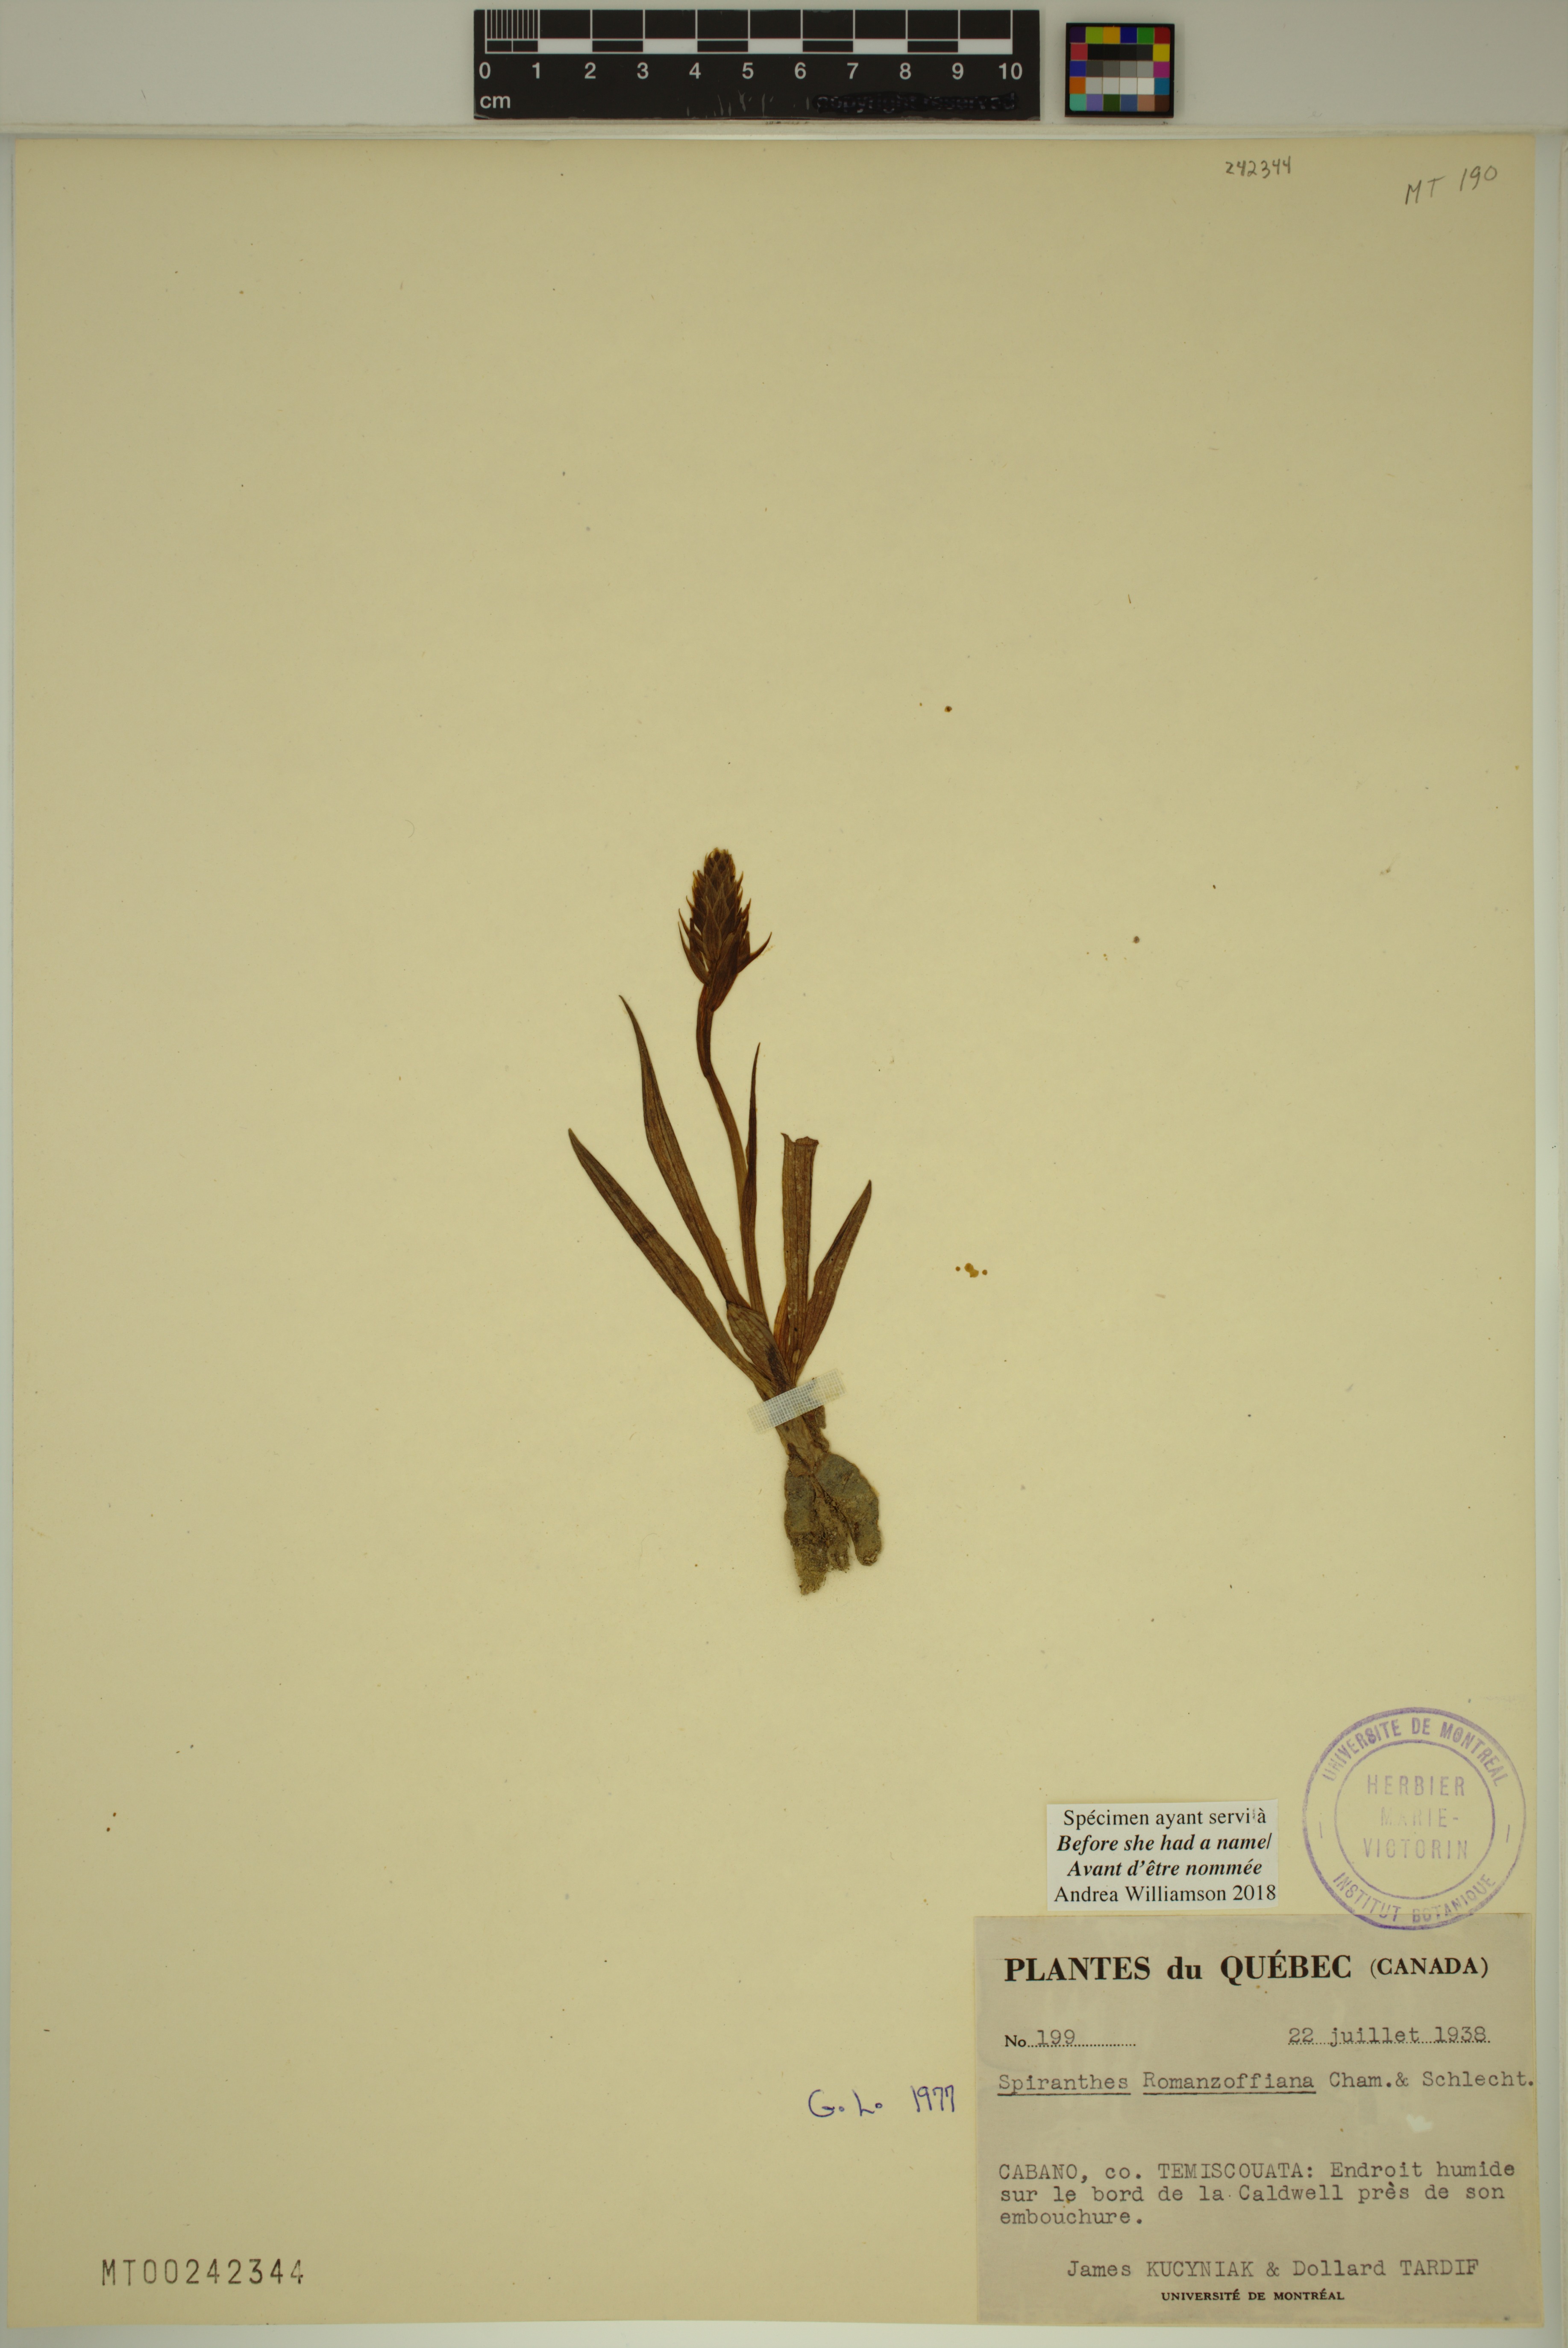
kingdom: Plantae
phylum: Tracheophyta
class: Liliopsida
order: Asparagales
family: Orchidaceae
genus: Spiranthes
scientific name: Spiranthes romanzoffiana
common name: Irish lady's-tresses
